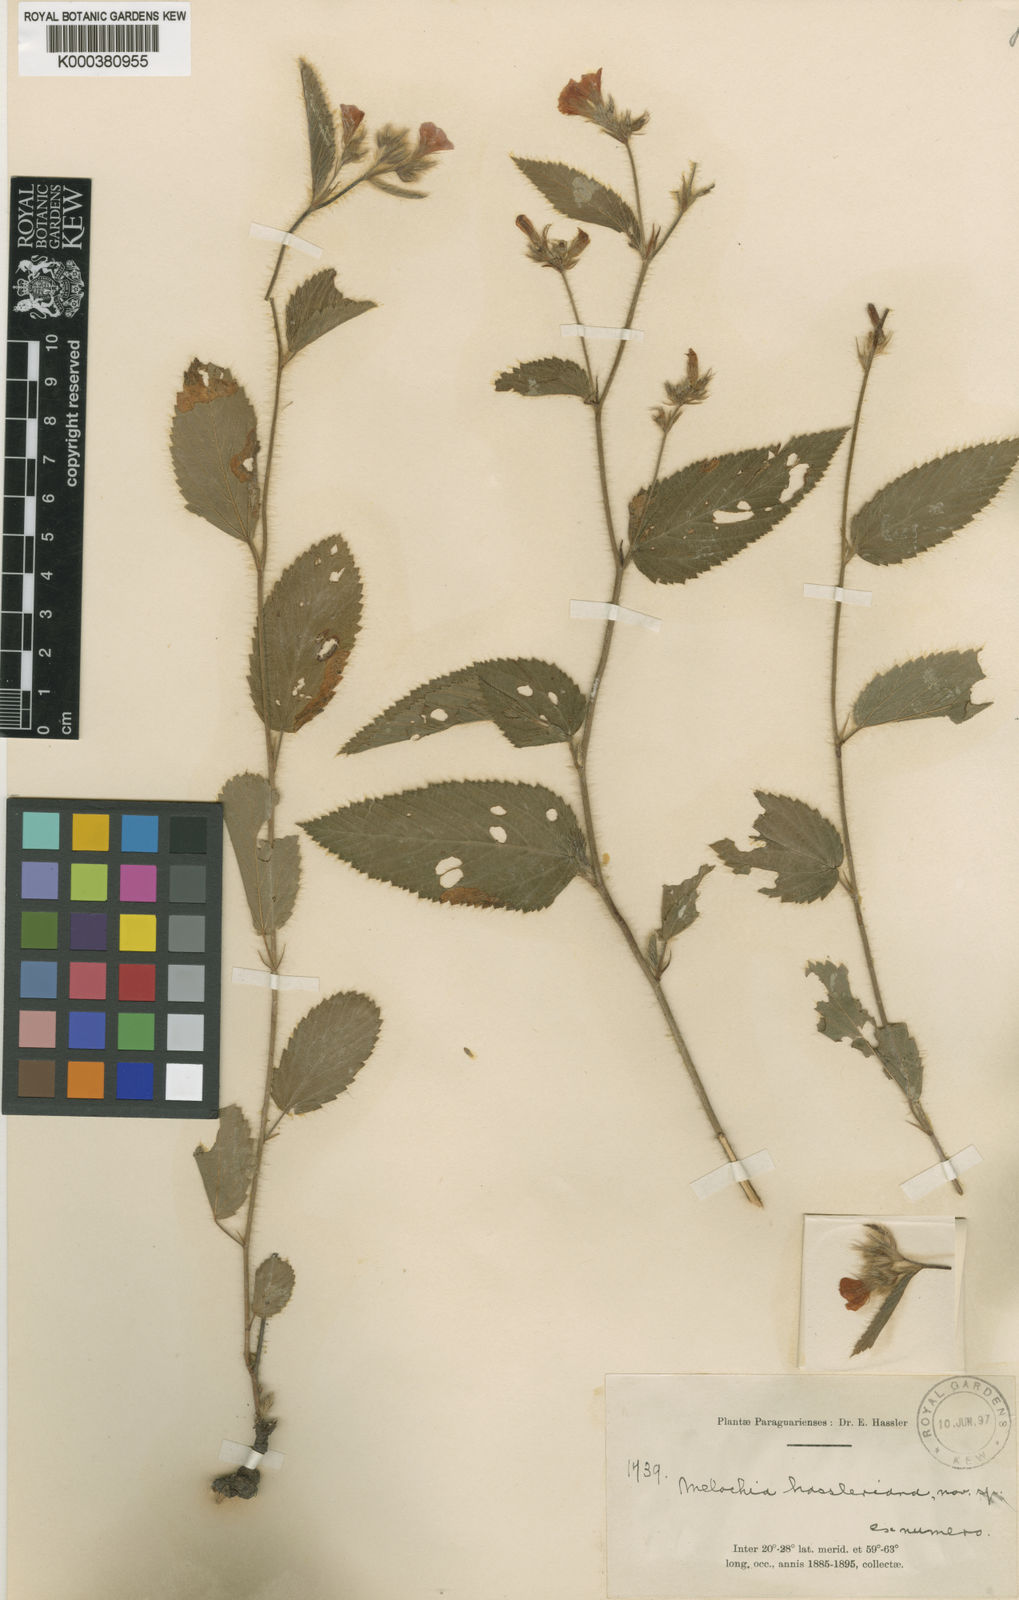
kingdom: Plantae
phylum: Tracheophyta
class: Magnoliopsida
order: Malvales
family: Malvaceae
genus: Melochia
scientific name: Melochia hassleriana
